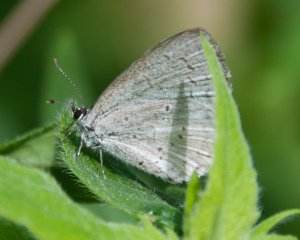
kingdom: Animalia
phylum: Arthropoda
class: Insecta
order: Lepidoptera
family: Lycaenidae
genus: Celastrina
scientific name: Celastrina lucia
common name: Northern Spring Azure
